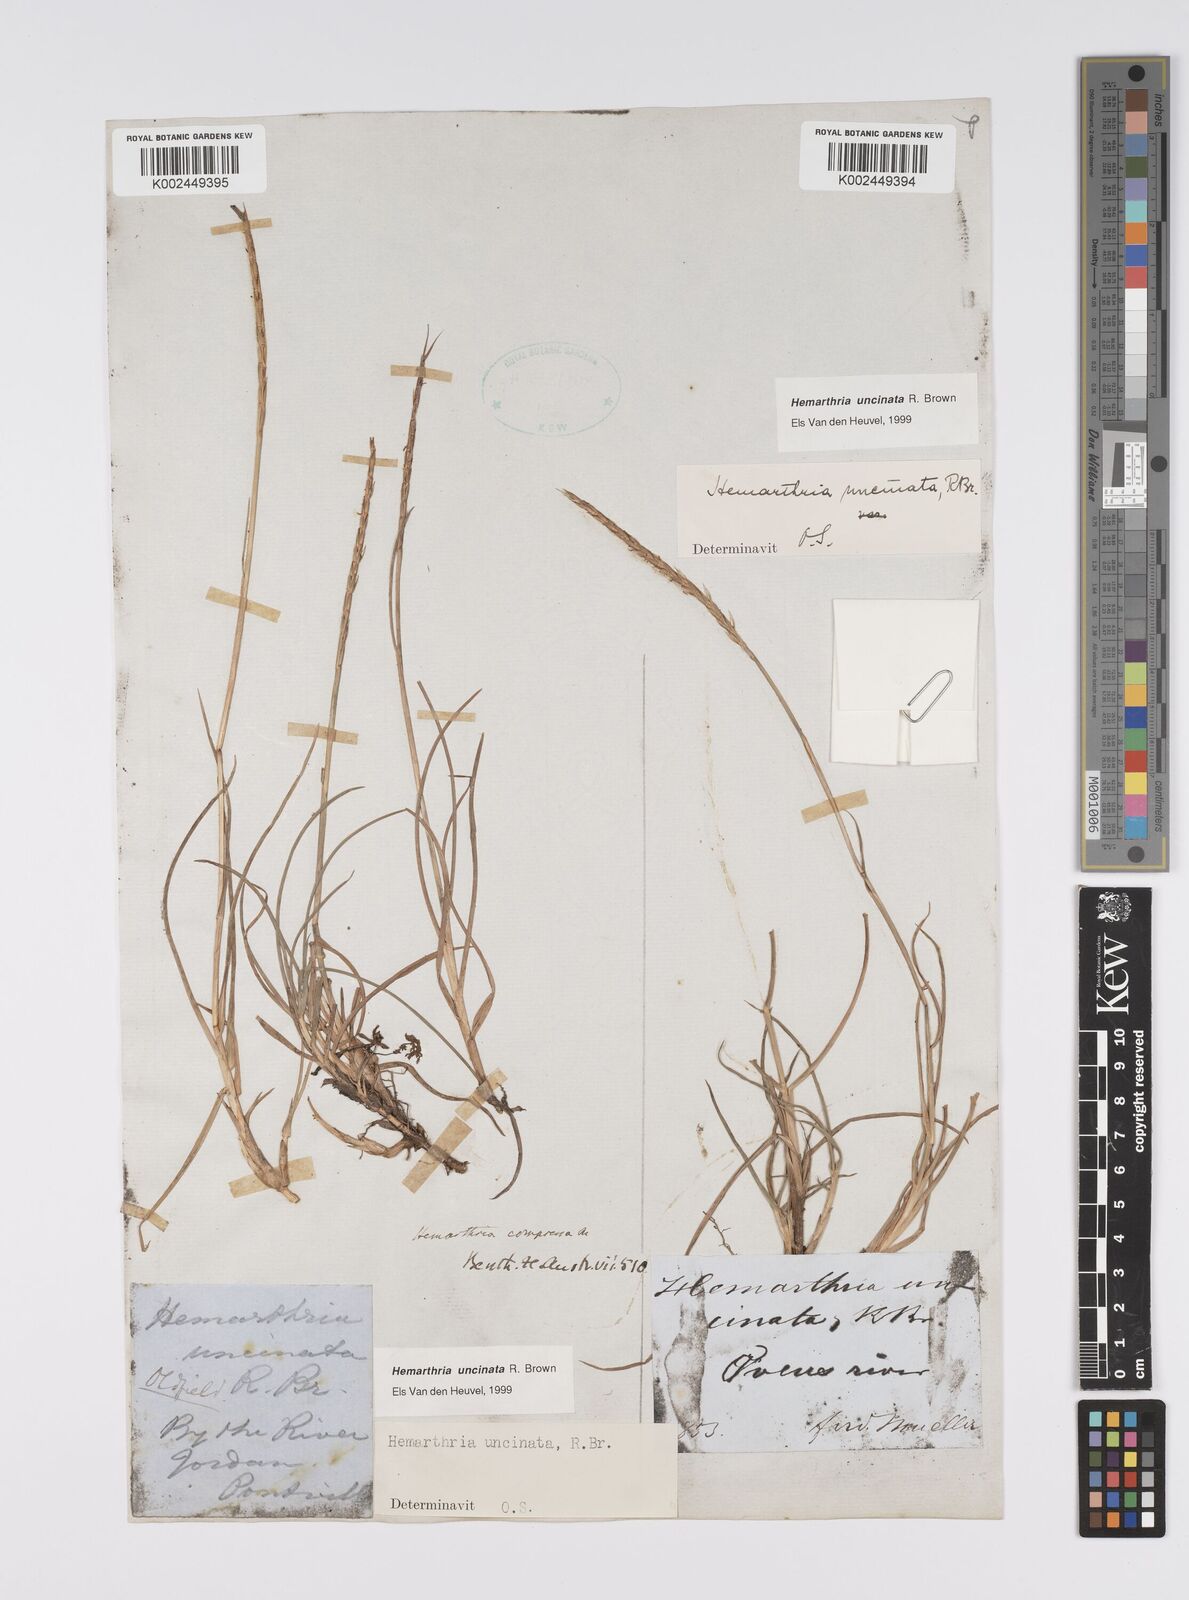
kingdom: Plantae
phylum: Tracheophyta
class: Liliopsida
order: Poales
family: Poaceae
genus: Hemarthria
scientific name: Hemarthria uncinata
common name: Matgrass
